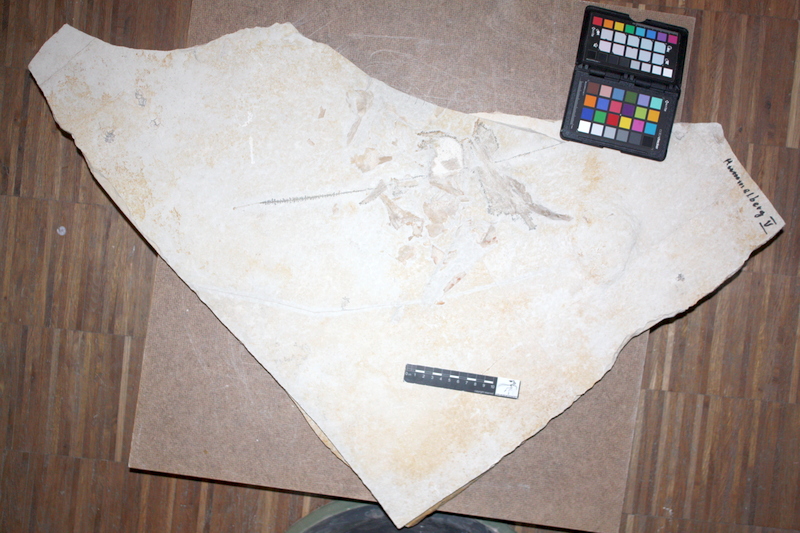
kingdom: Animalia
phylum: Chordata
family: Pachycormidae
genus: Asthenocormus
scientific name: Asthenocormus titanius
